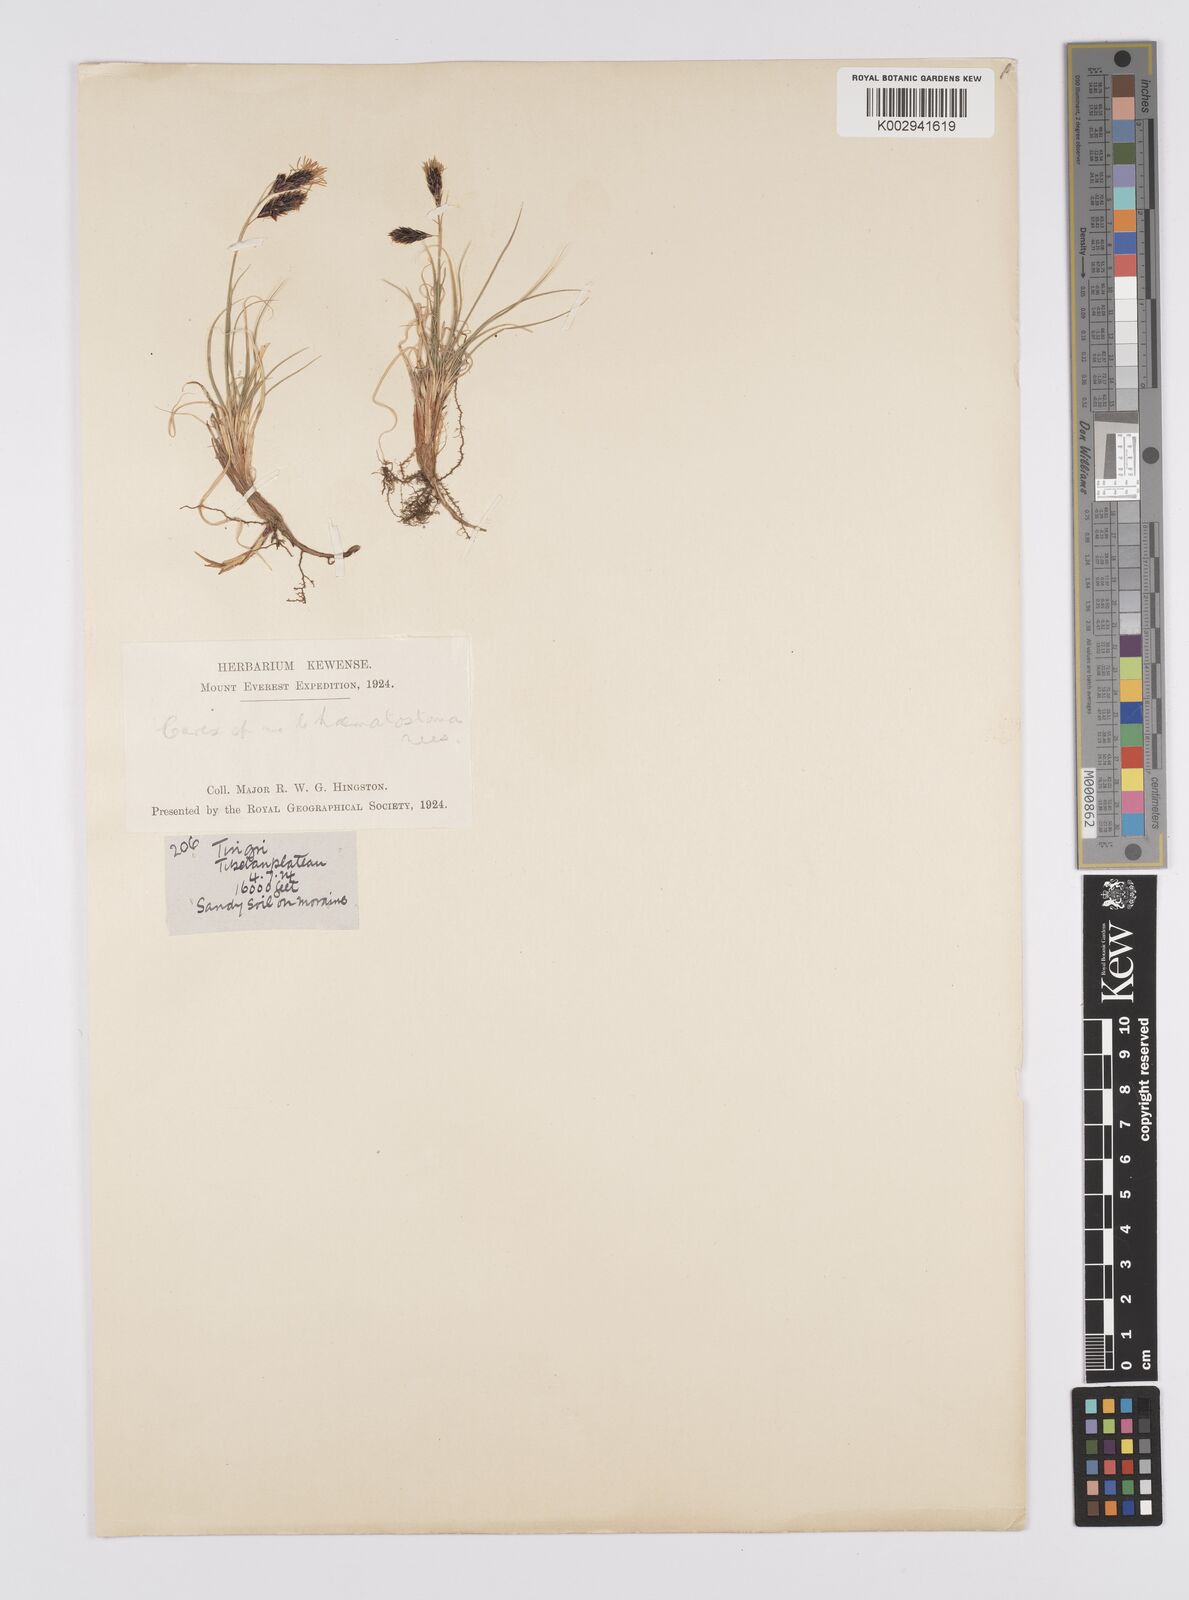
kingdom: Plantae
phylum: Tracheophyta
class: Liliopsida
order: Poales
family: Cyperaceae
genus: Carex
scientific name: Carex haematostoma
